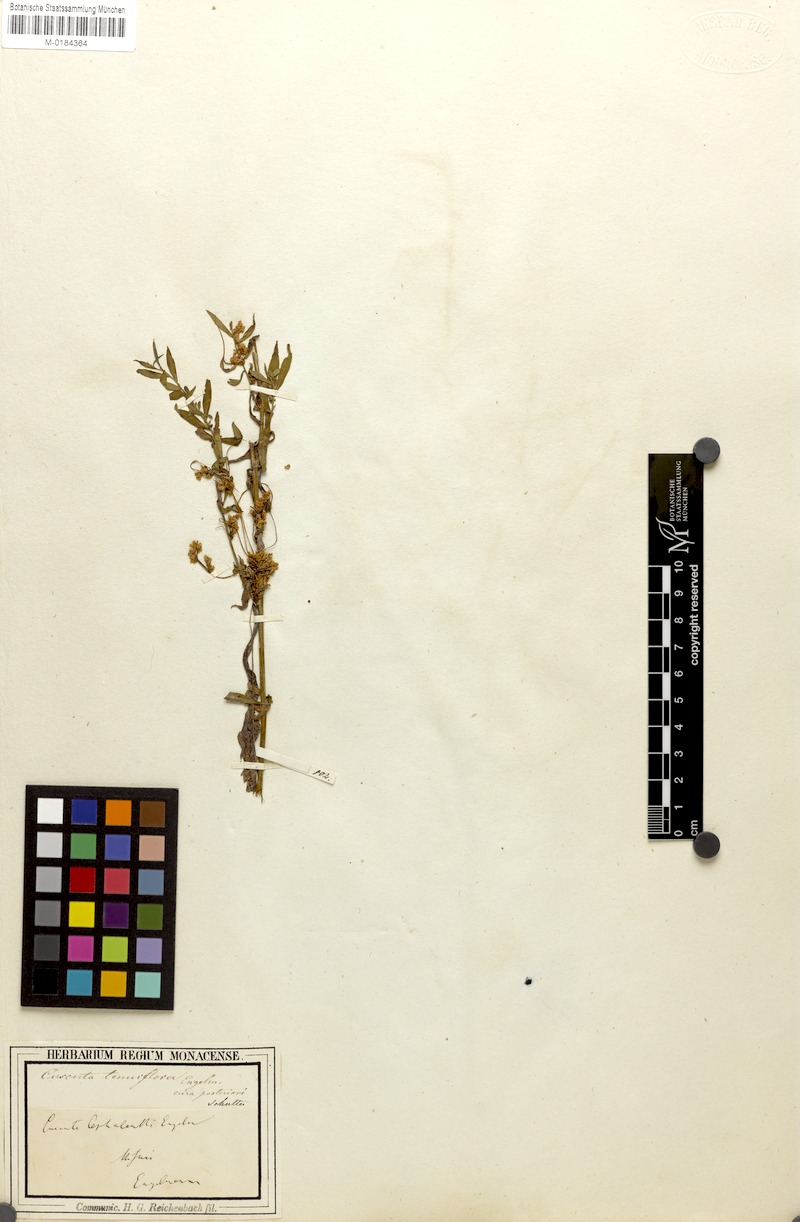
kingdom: Plantae
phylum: Tracheophyta
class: Magnoliopsida
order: Solanales
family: Convolvulaceae
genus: Cuscuta
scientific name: Cuscuta cephalanthi
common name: Button dodder
